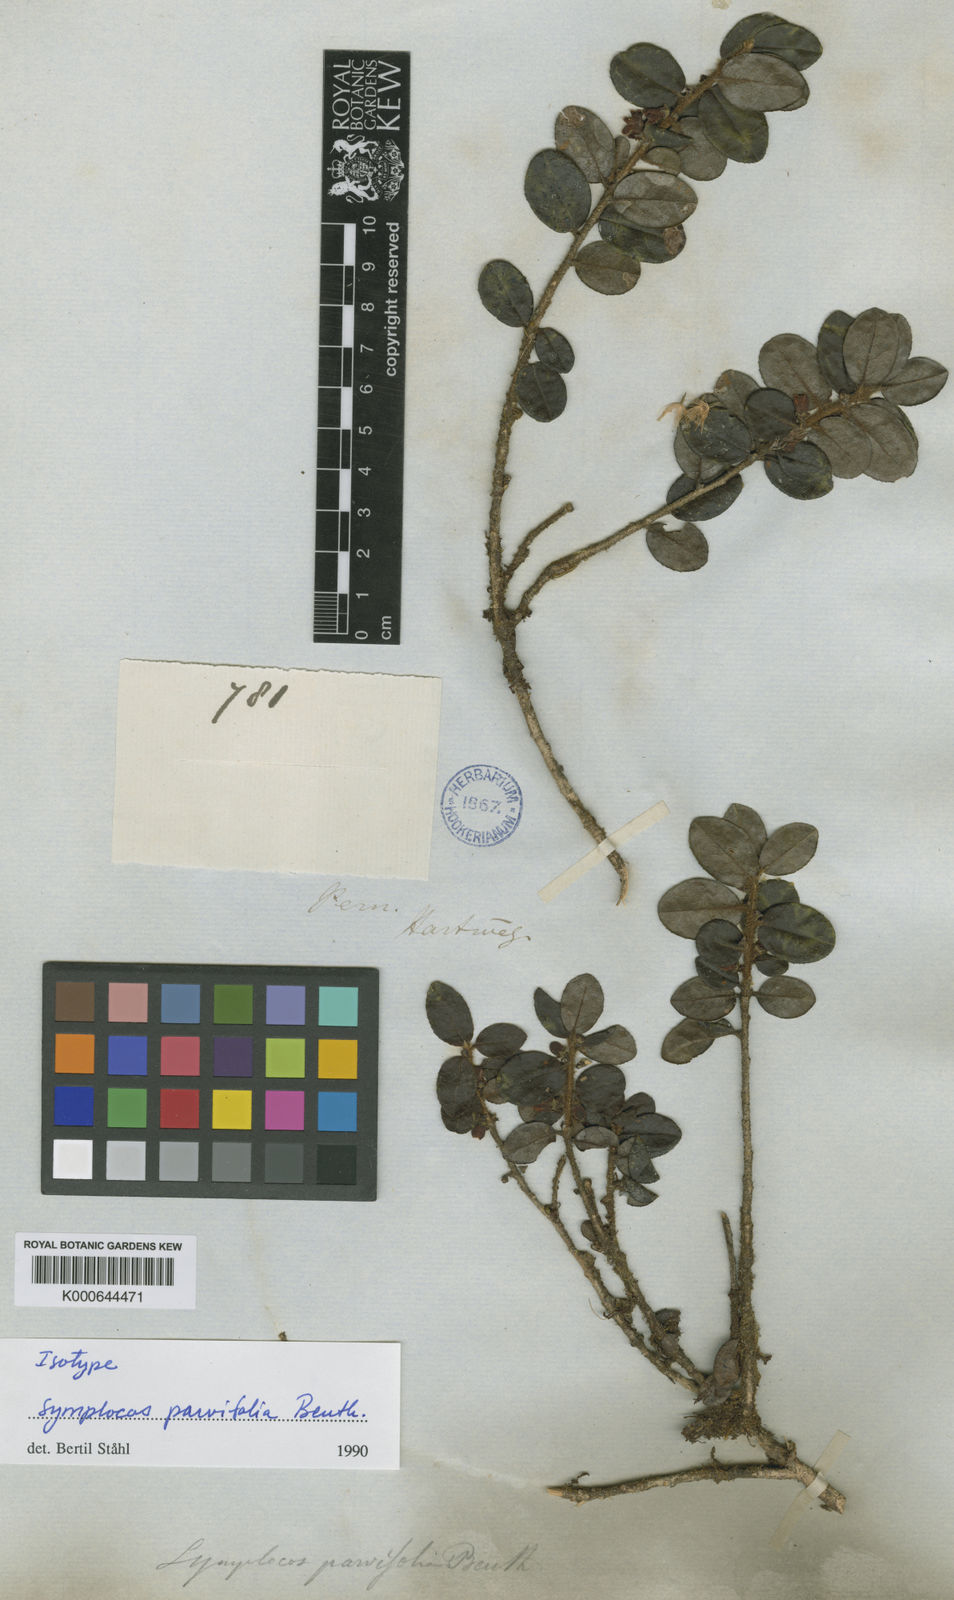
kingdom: Plantae
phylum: Tracheophyta
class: Magnoliopsida
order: Ericales
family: Symplocaceae
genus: Symplocos
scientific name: Symplocos uniflora
